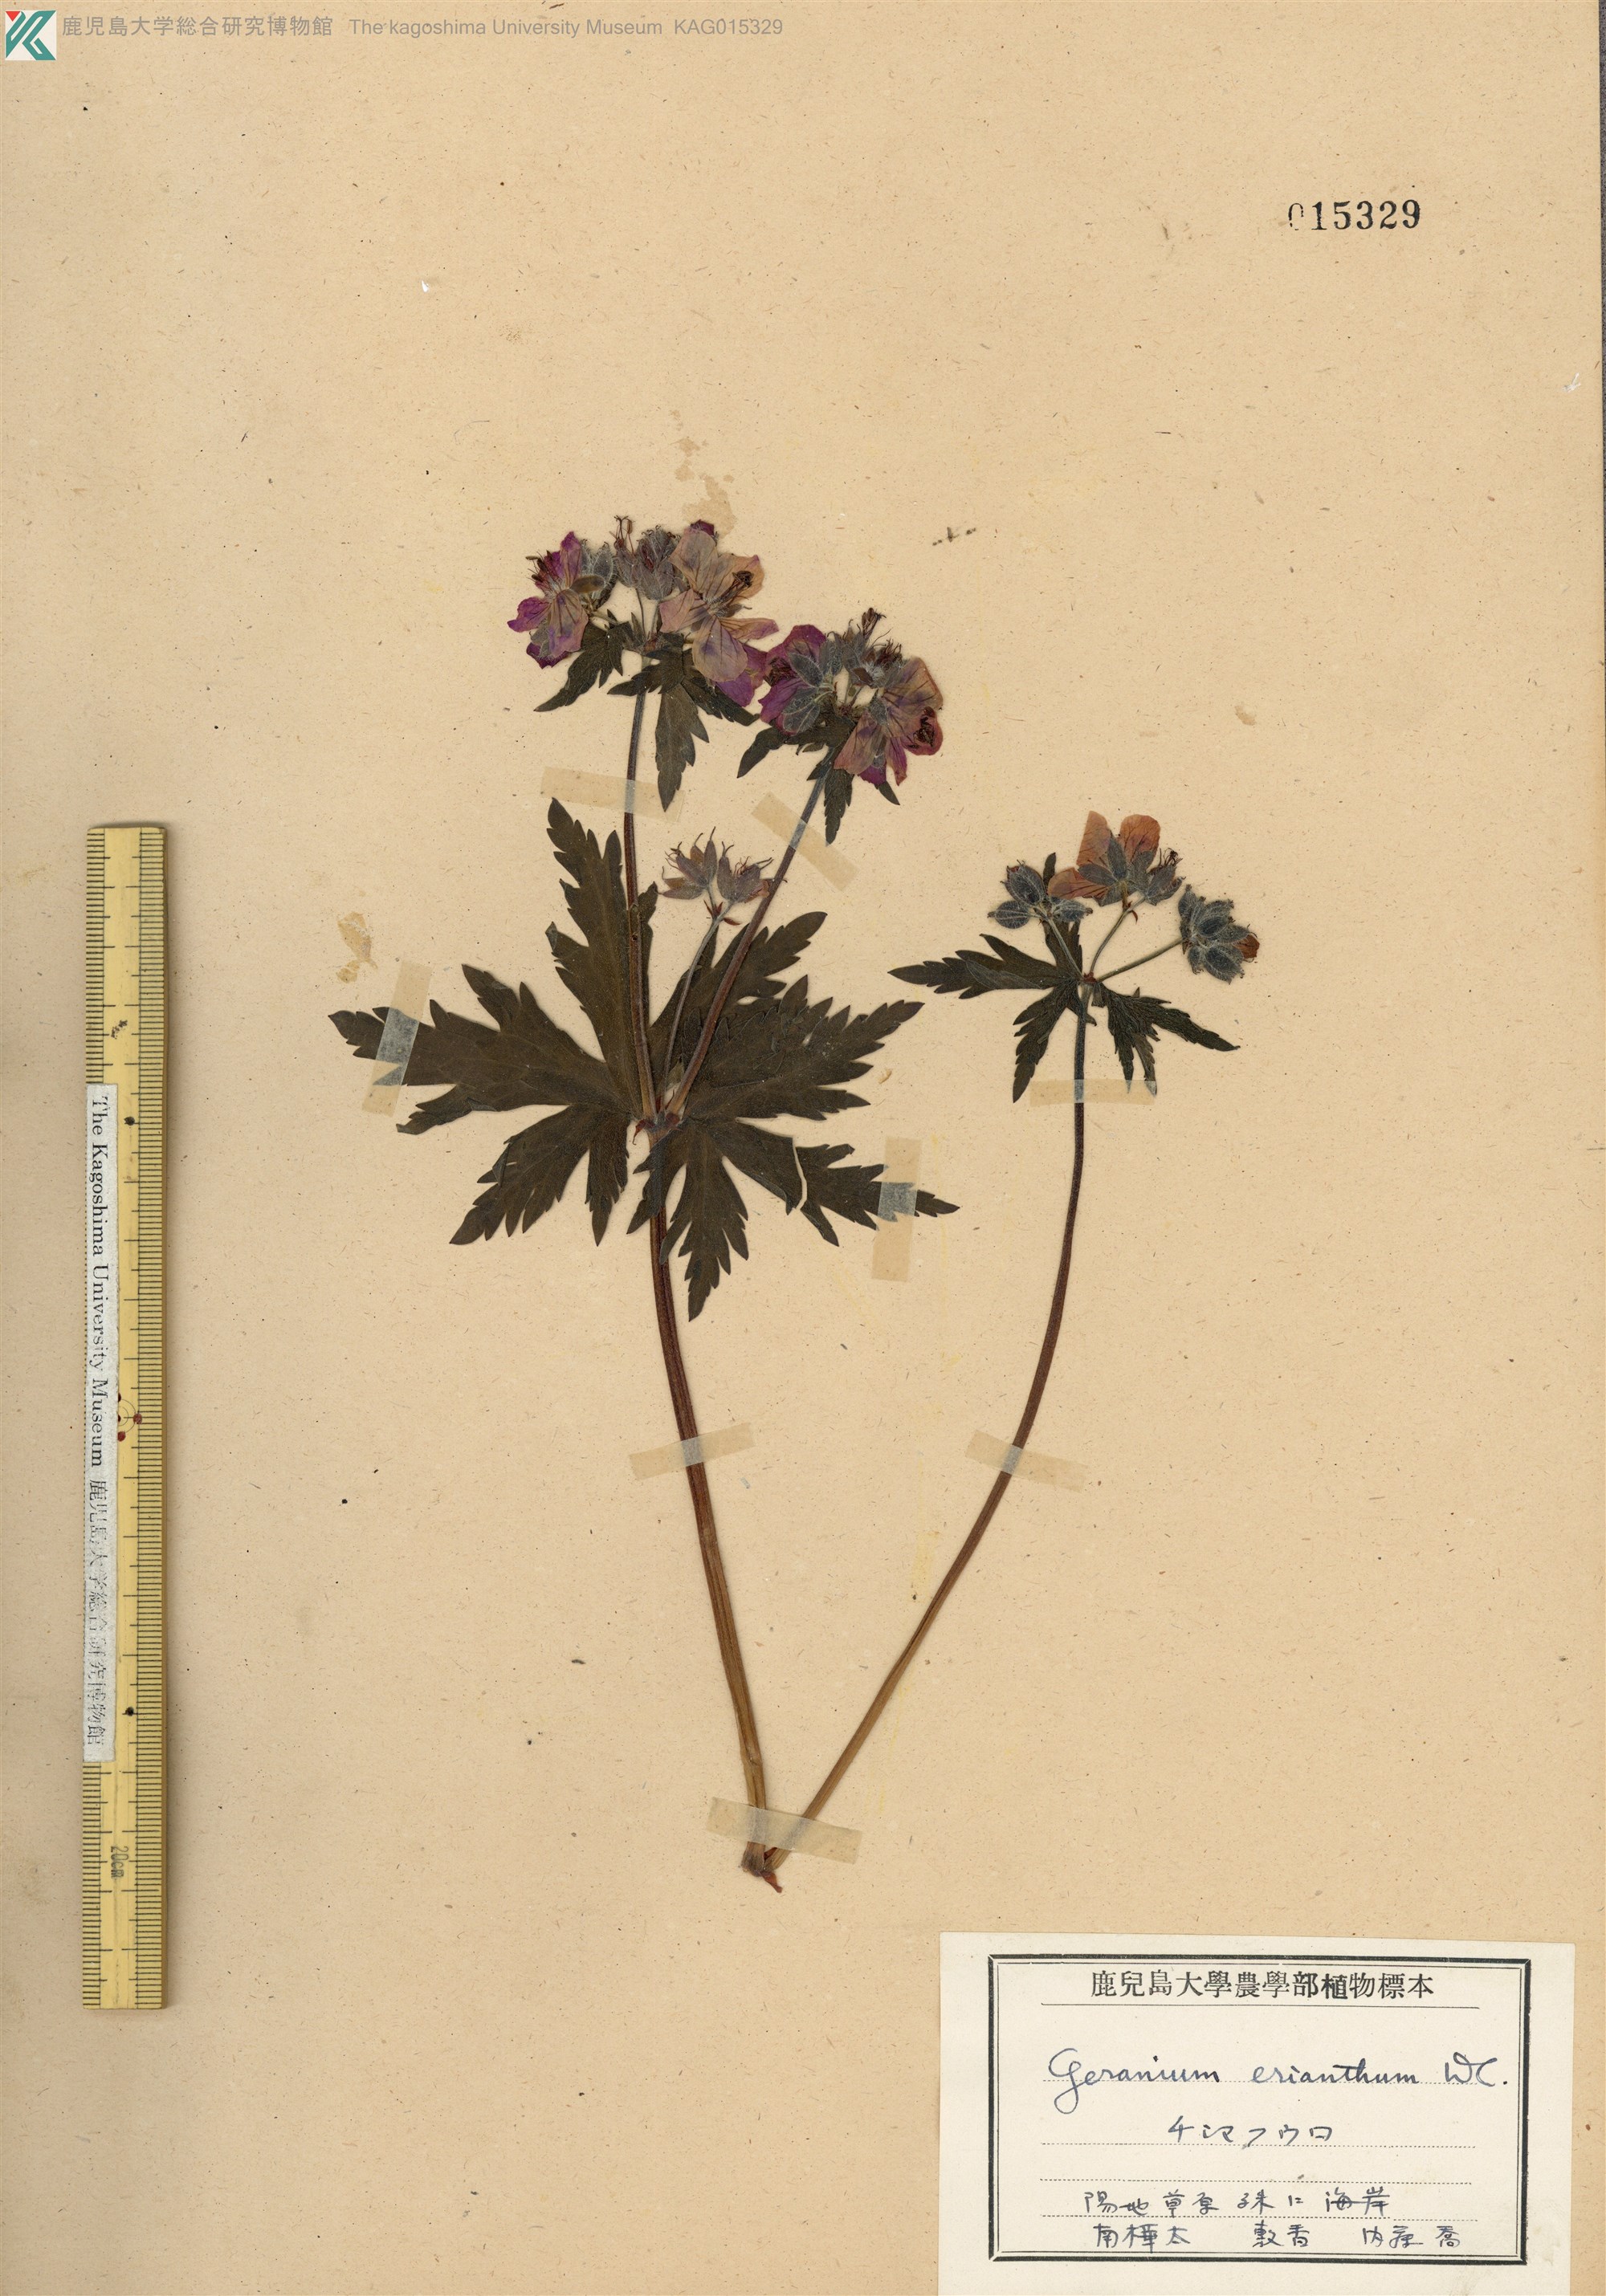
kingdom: Plantae
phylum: Tracheophyta
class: Magnoliopsida
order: Geraniales
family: Geraniaceae
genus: Geranium
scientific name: Geranium erianthum
